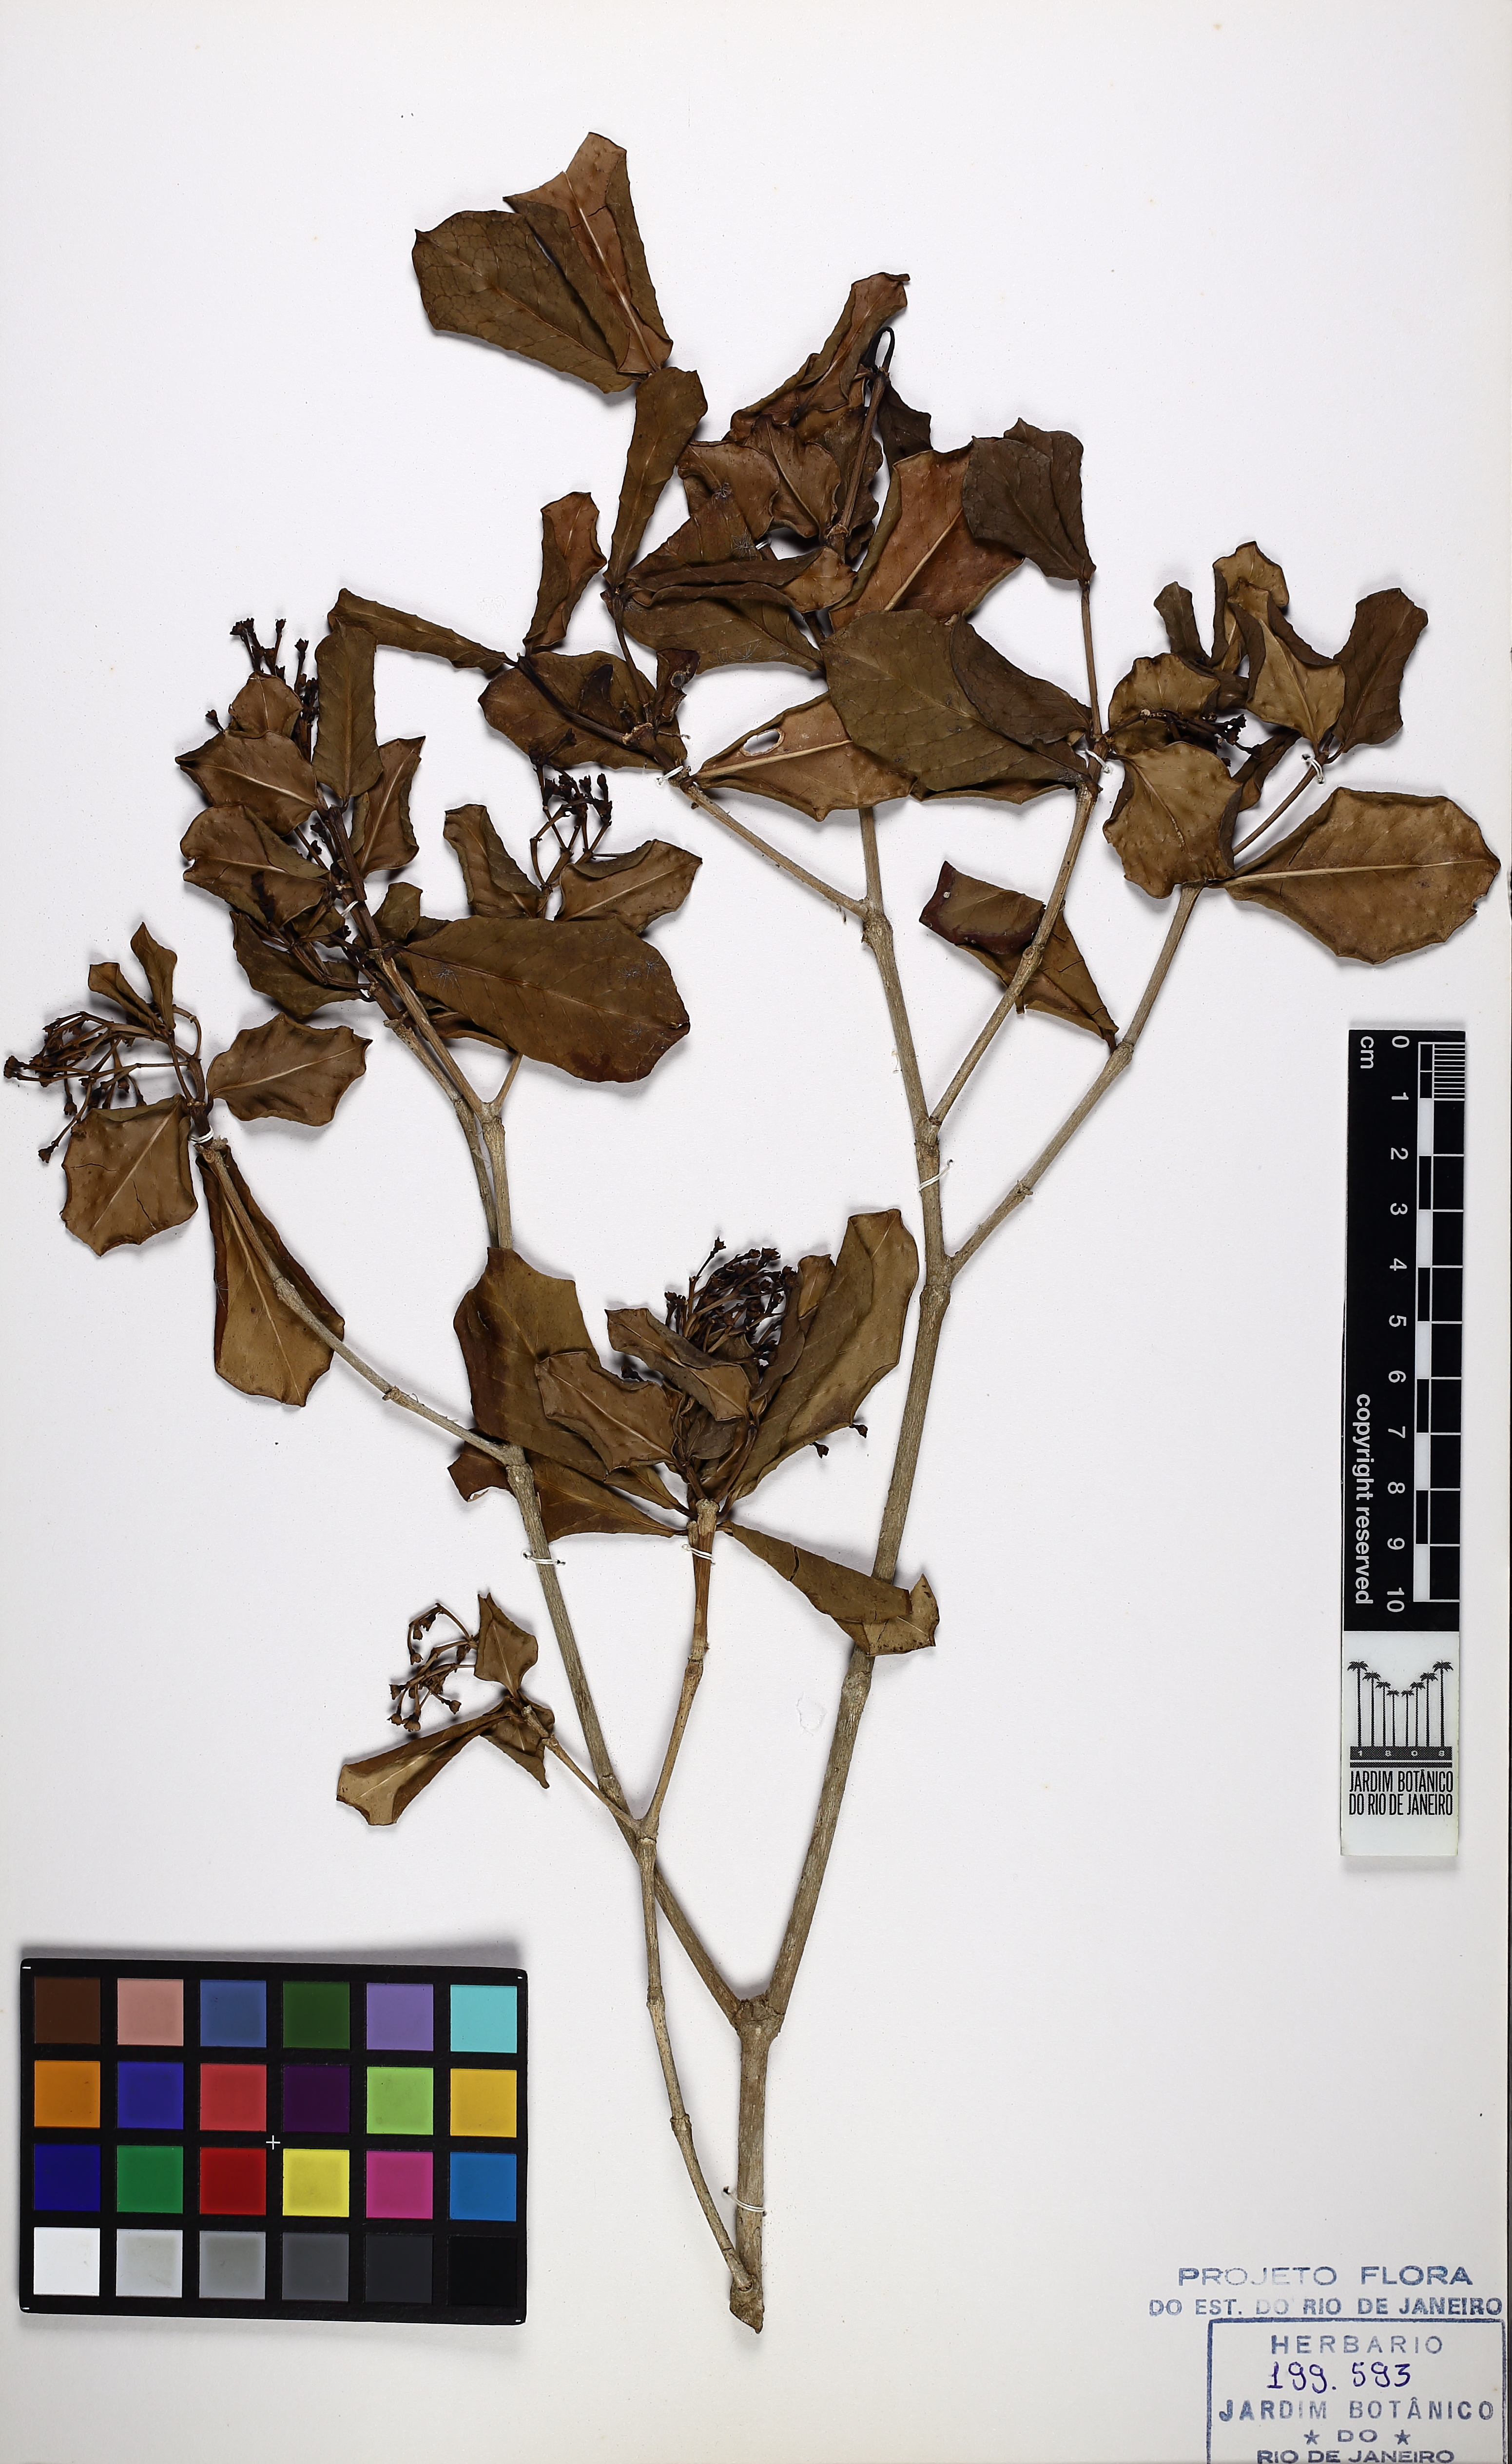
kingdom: Plantae
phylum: Tracheophyta
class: Magnoliopsida
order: Gentianales
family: Rubiaceae
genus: Rudgea
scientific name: Rudgea umbrosa
